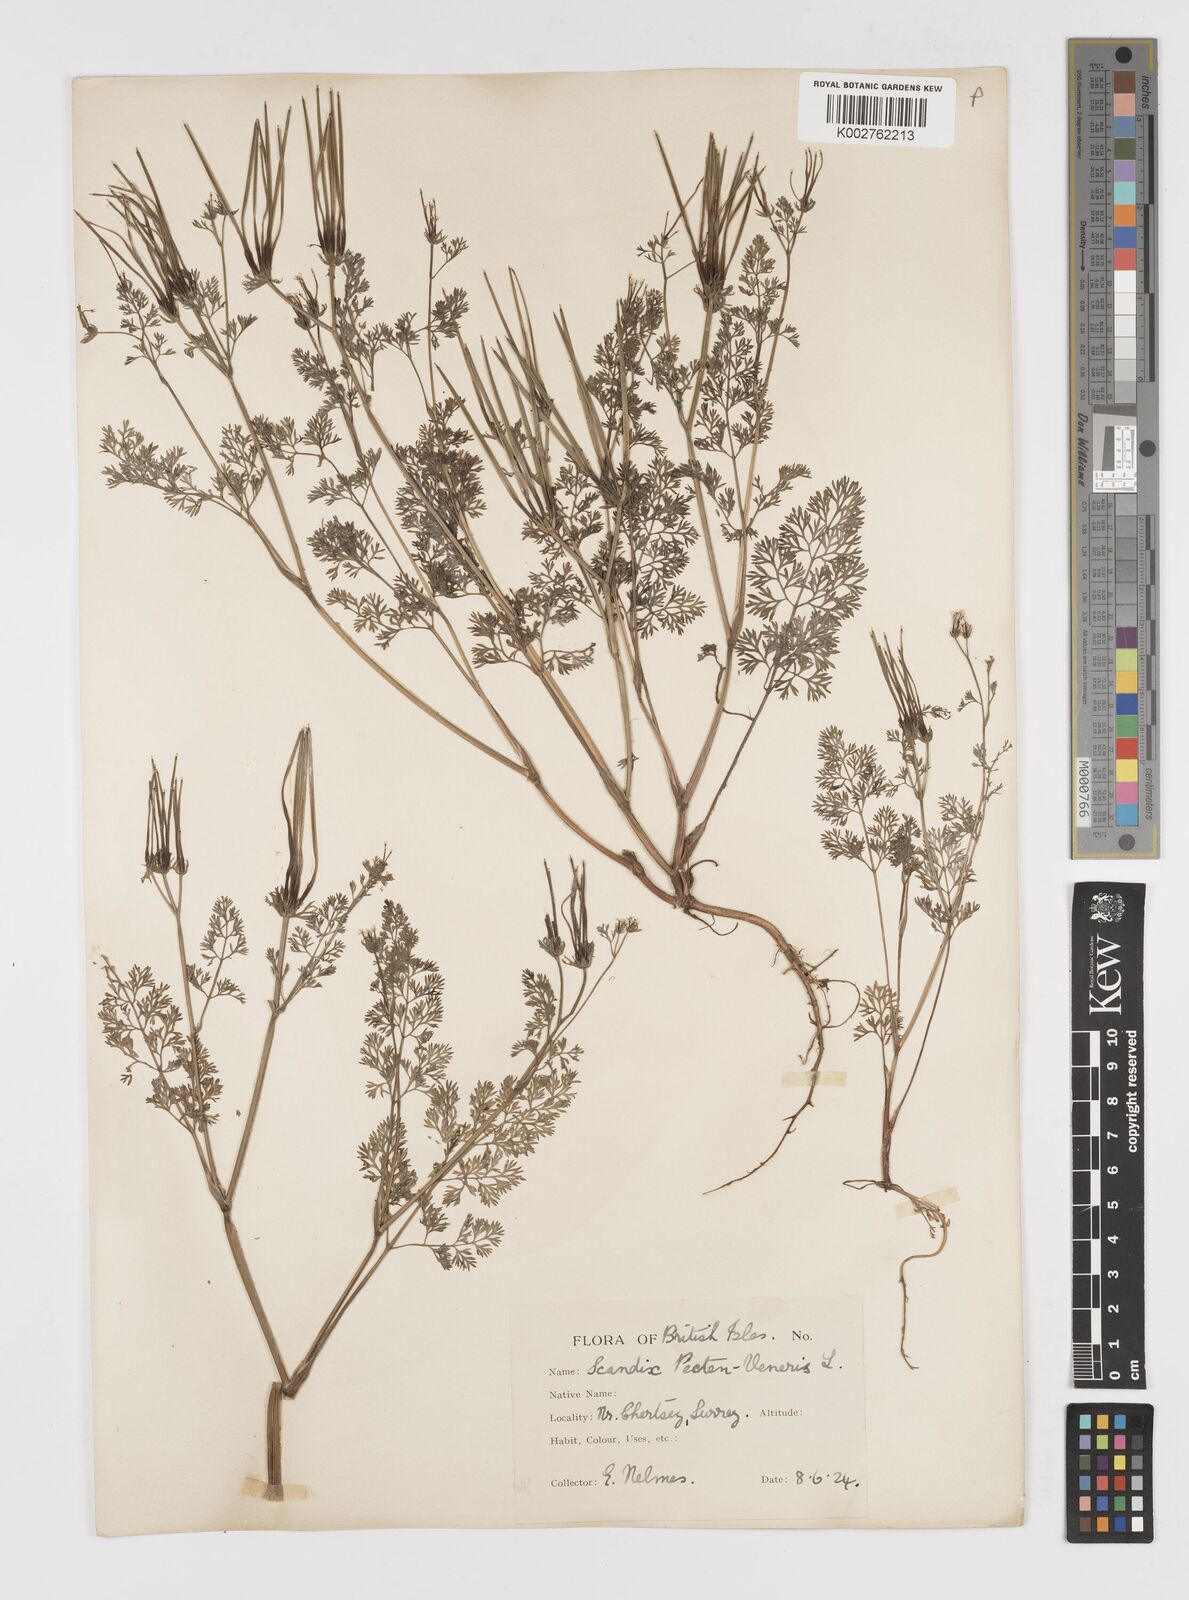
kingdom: Plantae
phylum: Tracheophyta
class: Magnoliopsida
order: Apiales
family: Apiaceae
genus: Scandix
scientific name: Scandix pecten-veneris
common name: Shepherd's-needle
